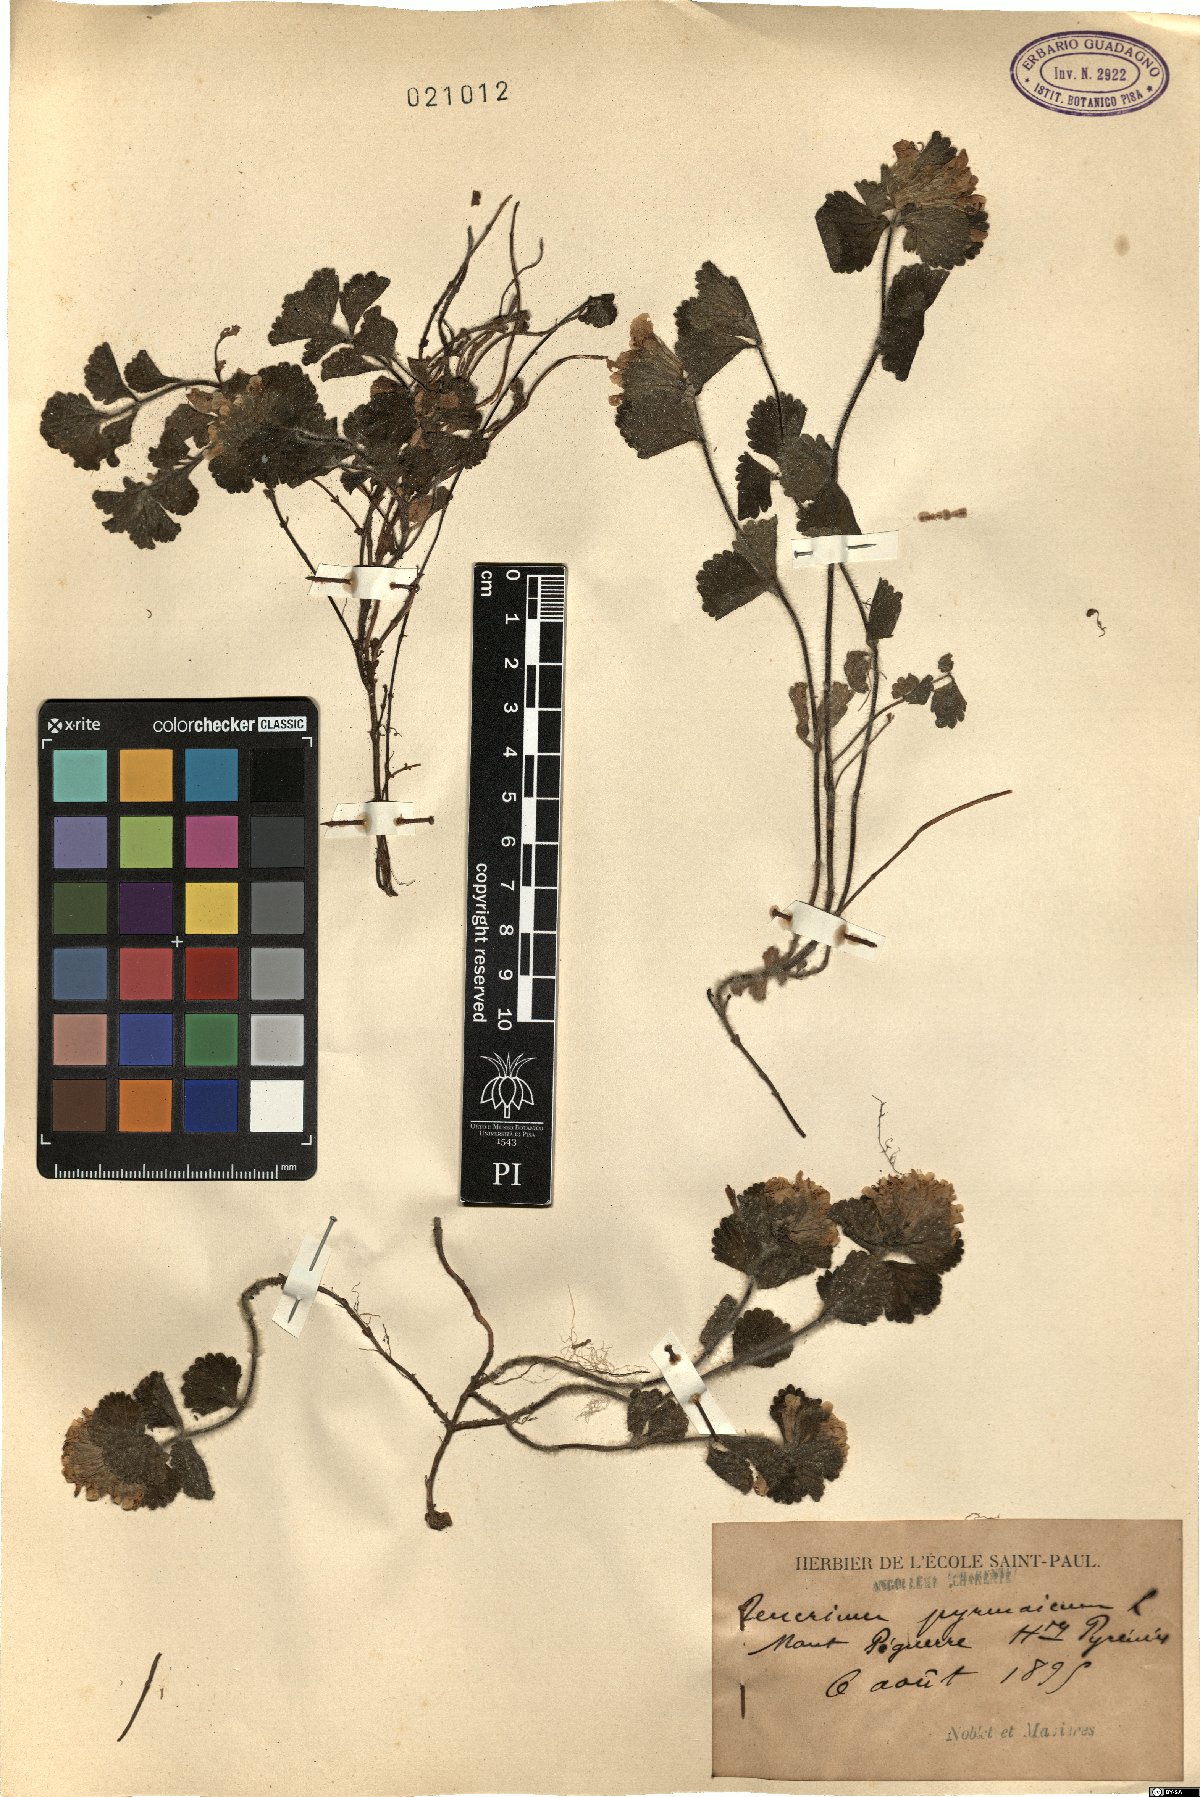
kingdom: Plantae
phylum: Tracheophyta
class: Magnoliopsida
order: Lamiales
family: Lamiaceae
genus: Teucrium
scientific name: Teucrium pyrenaicum
